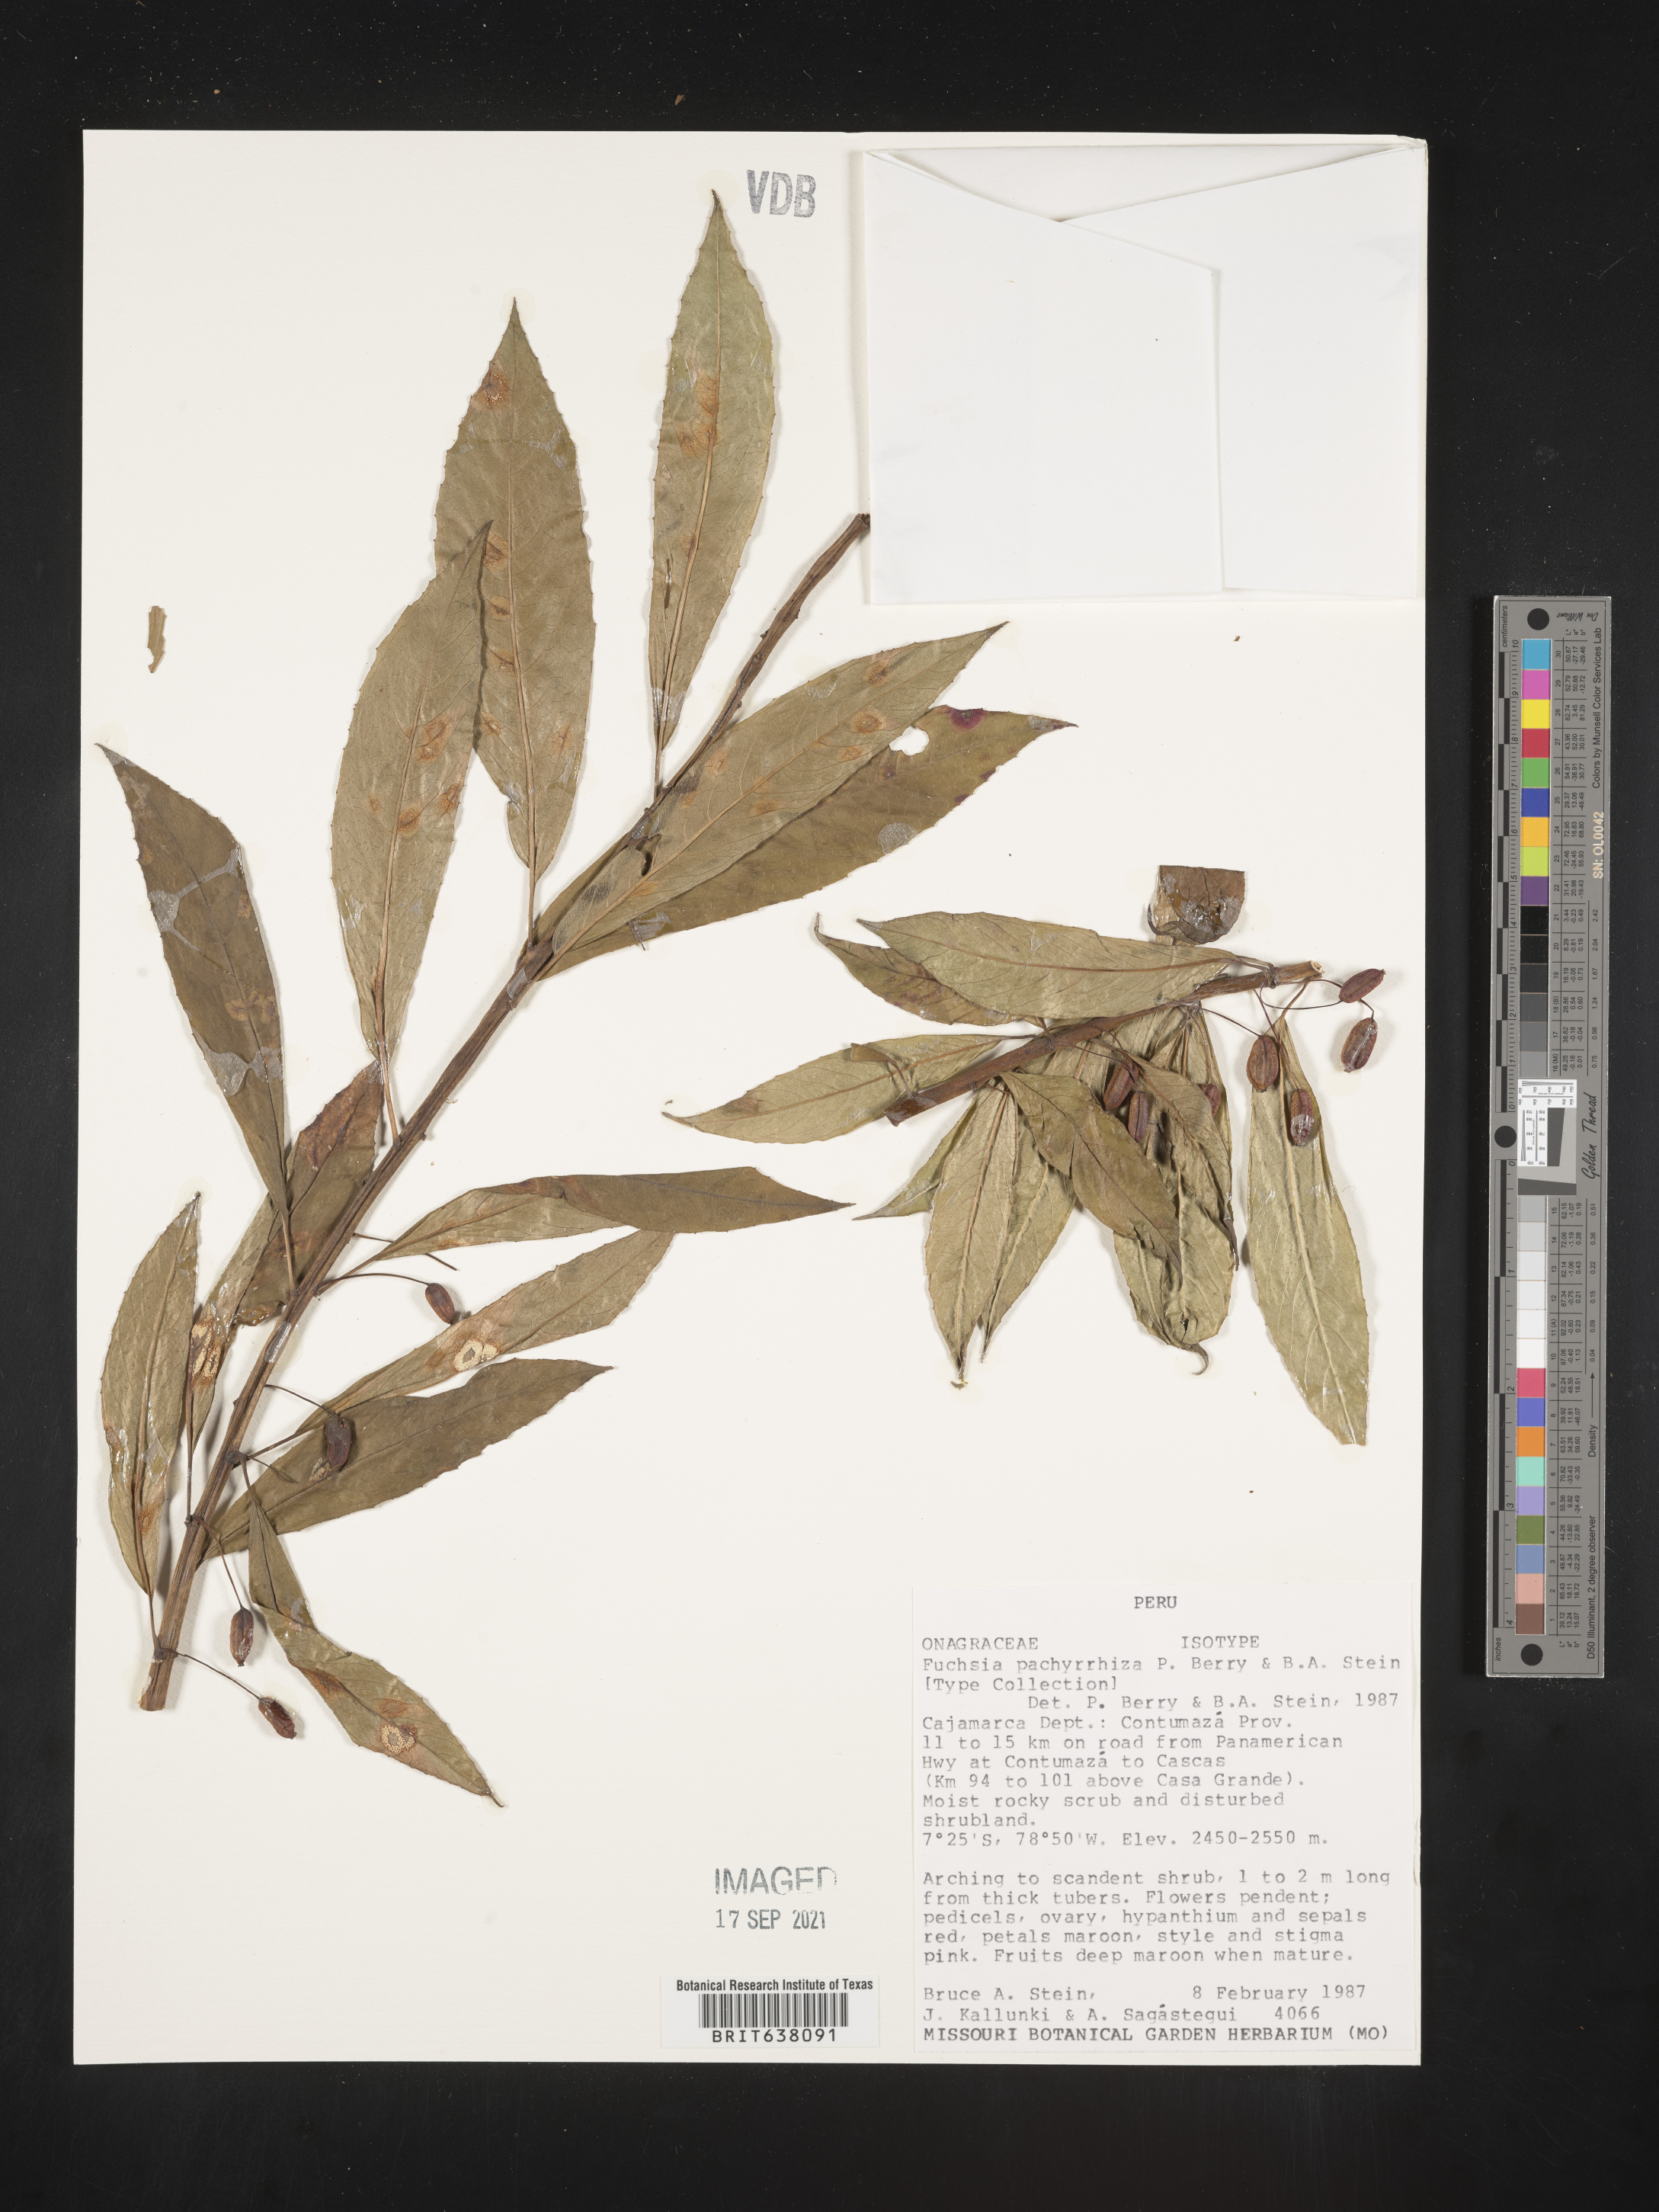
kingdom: Plantae
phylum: Tracheophyta
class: Magnoliopsida
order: Myrtales
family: Onagraceae
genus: Fuchsia
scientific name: Fuchsia
